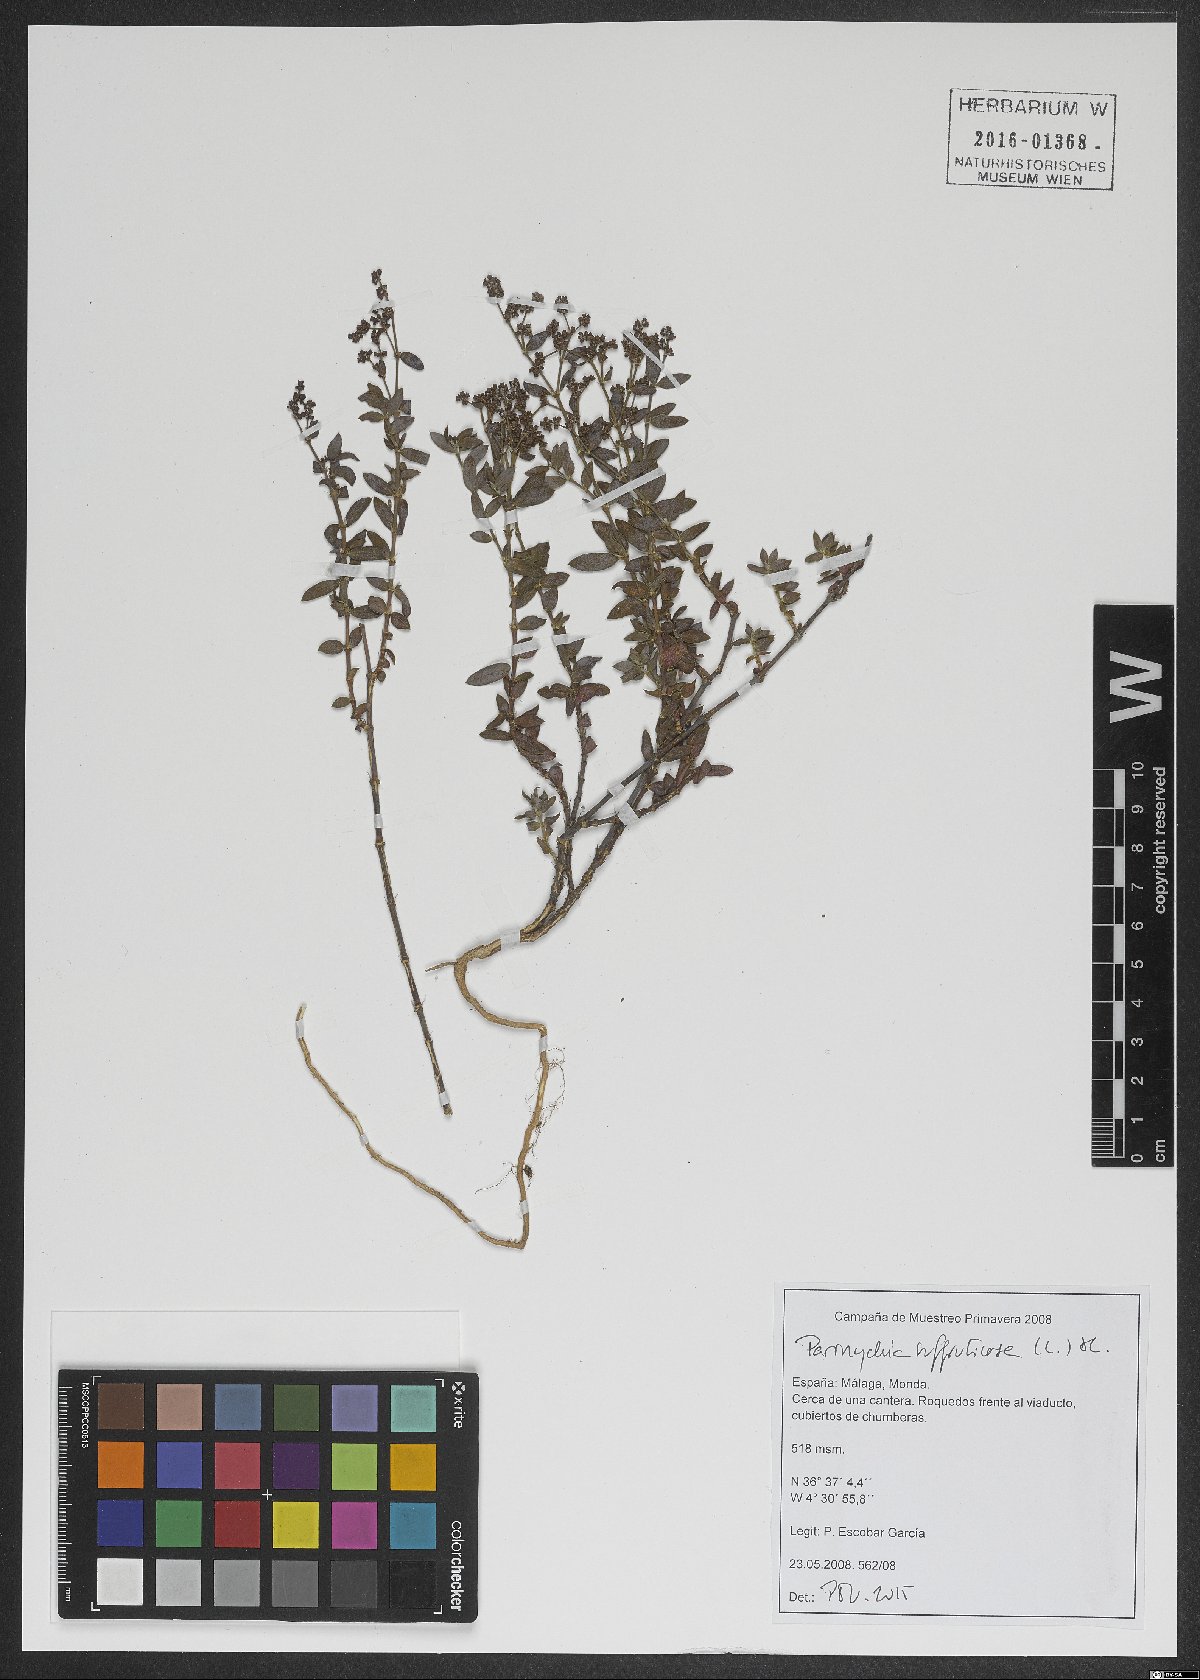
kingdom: Plantae
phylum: Tracheophyta
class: Magnoliopsida
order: Caryophyllales
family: Caryophyllaceae
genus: Paronychia
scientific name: Paronychia suffruticosa
